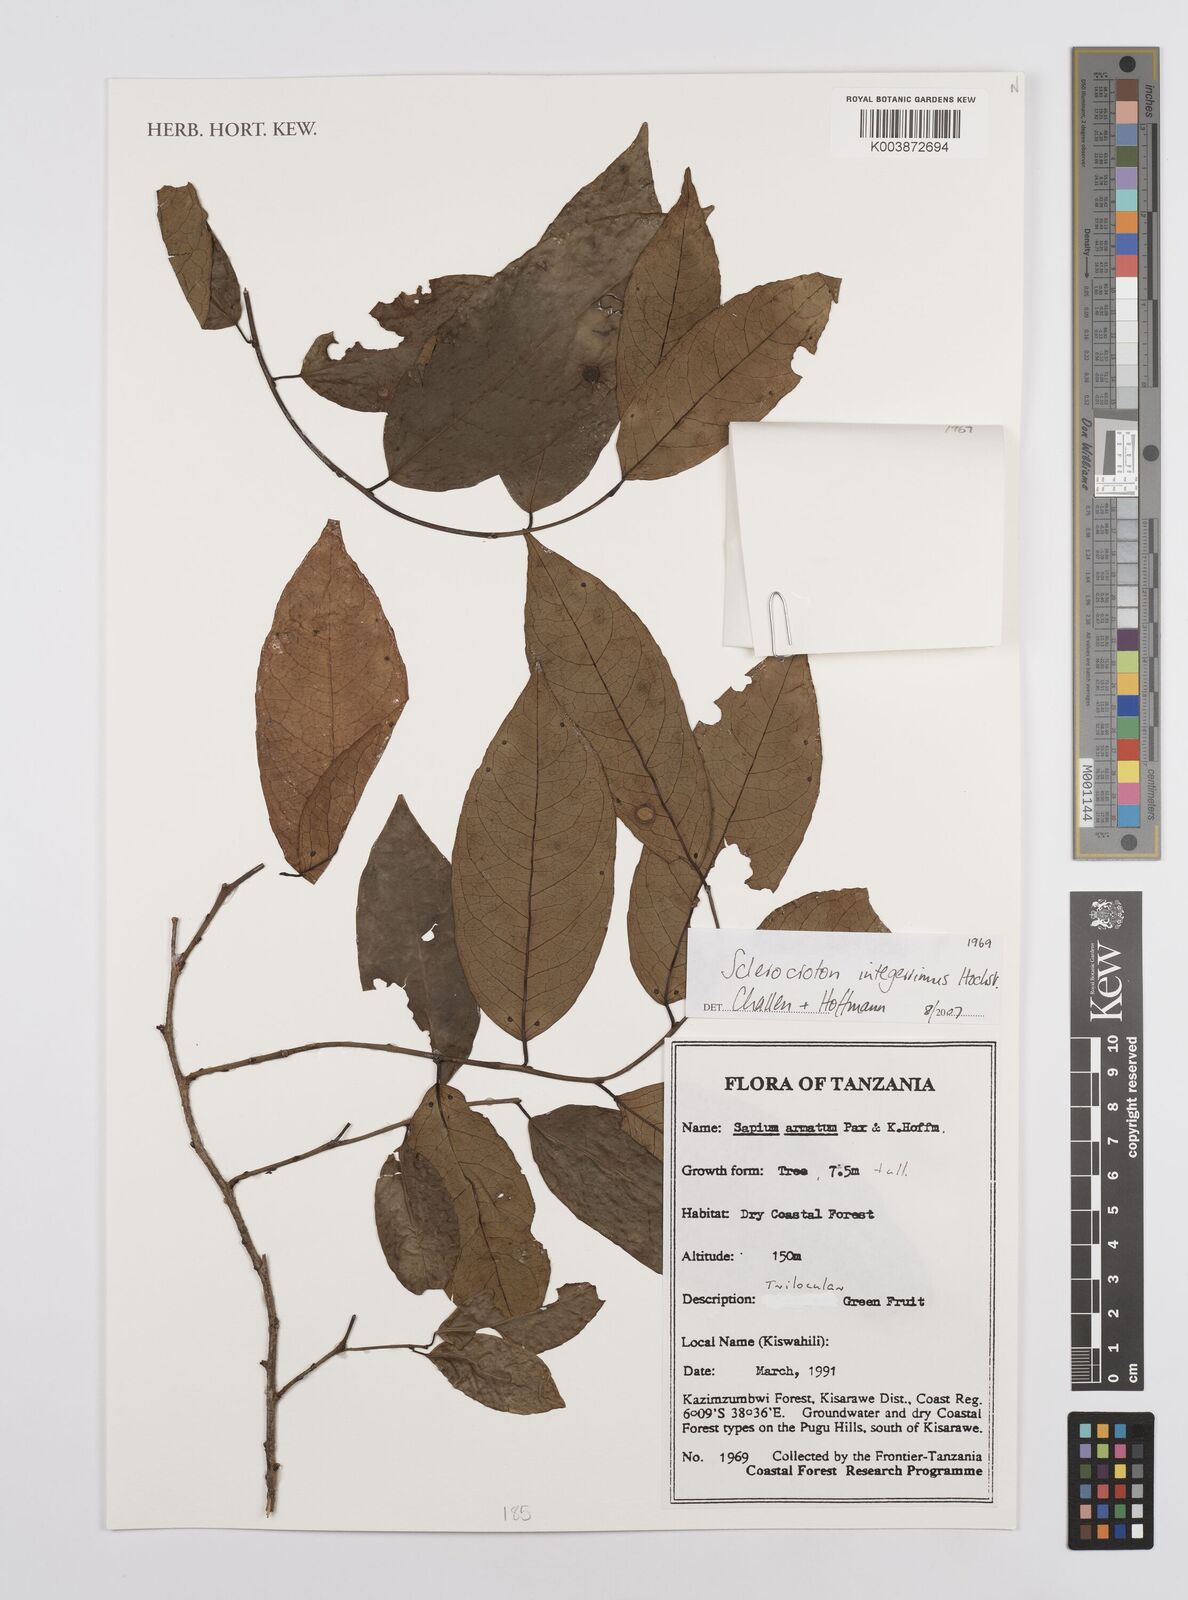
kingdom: Plantae
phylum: Tracheophyta
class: Magnoliopsida
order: Malpighiales
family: Euphorbiaceae
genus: Sclerocroton
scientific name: Sclerocroton integerrimus
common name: Duiker berry
